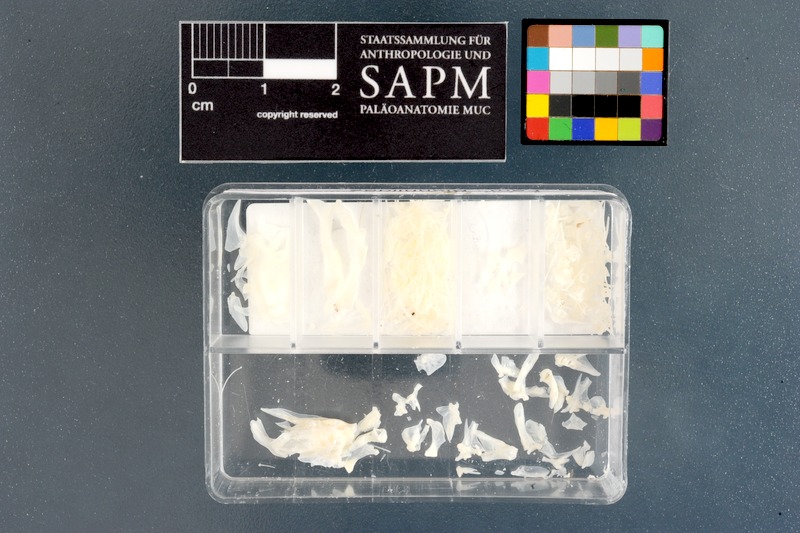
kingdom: Animalia
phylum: Chordata
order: Perciformes
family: Blenniidae
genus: Parablennius
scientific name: Parablennius pilicornis
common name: Ringneck blenny
